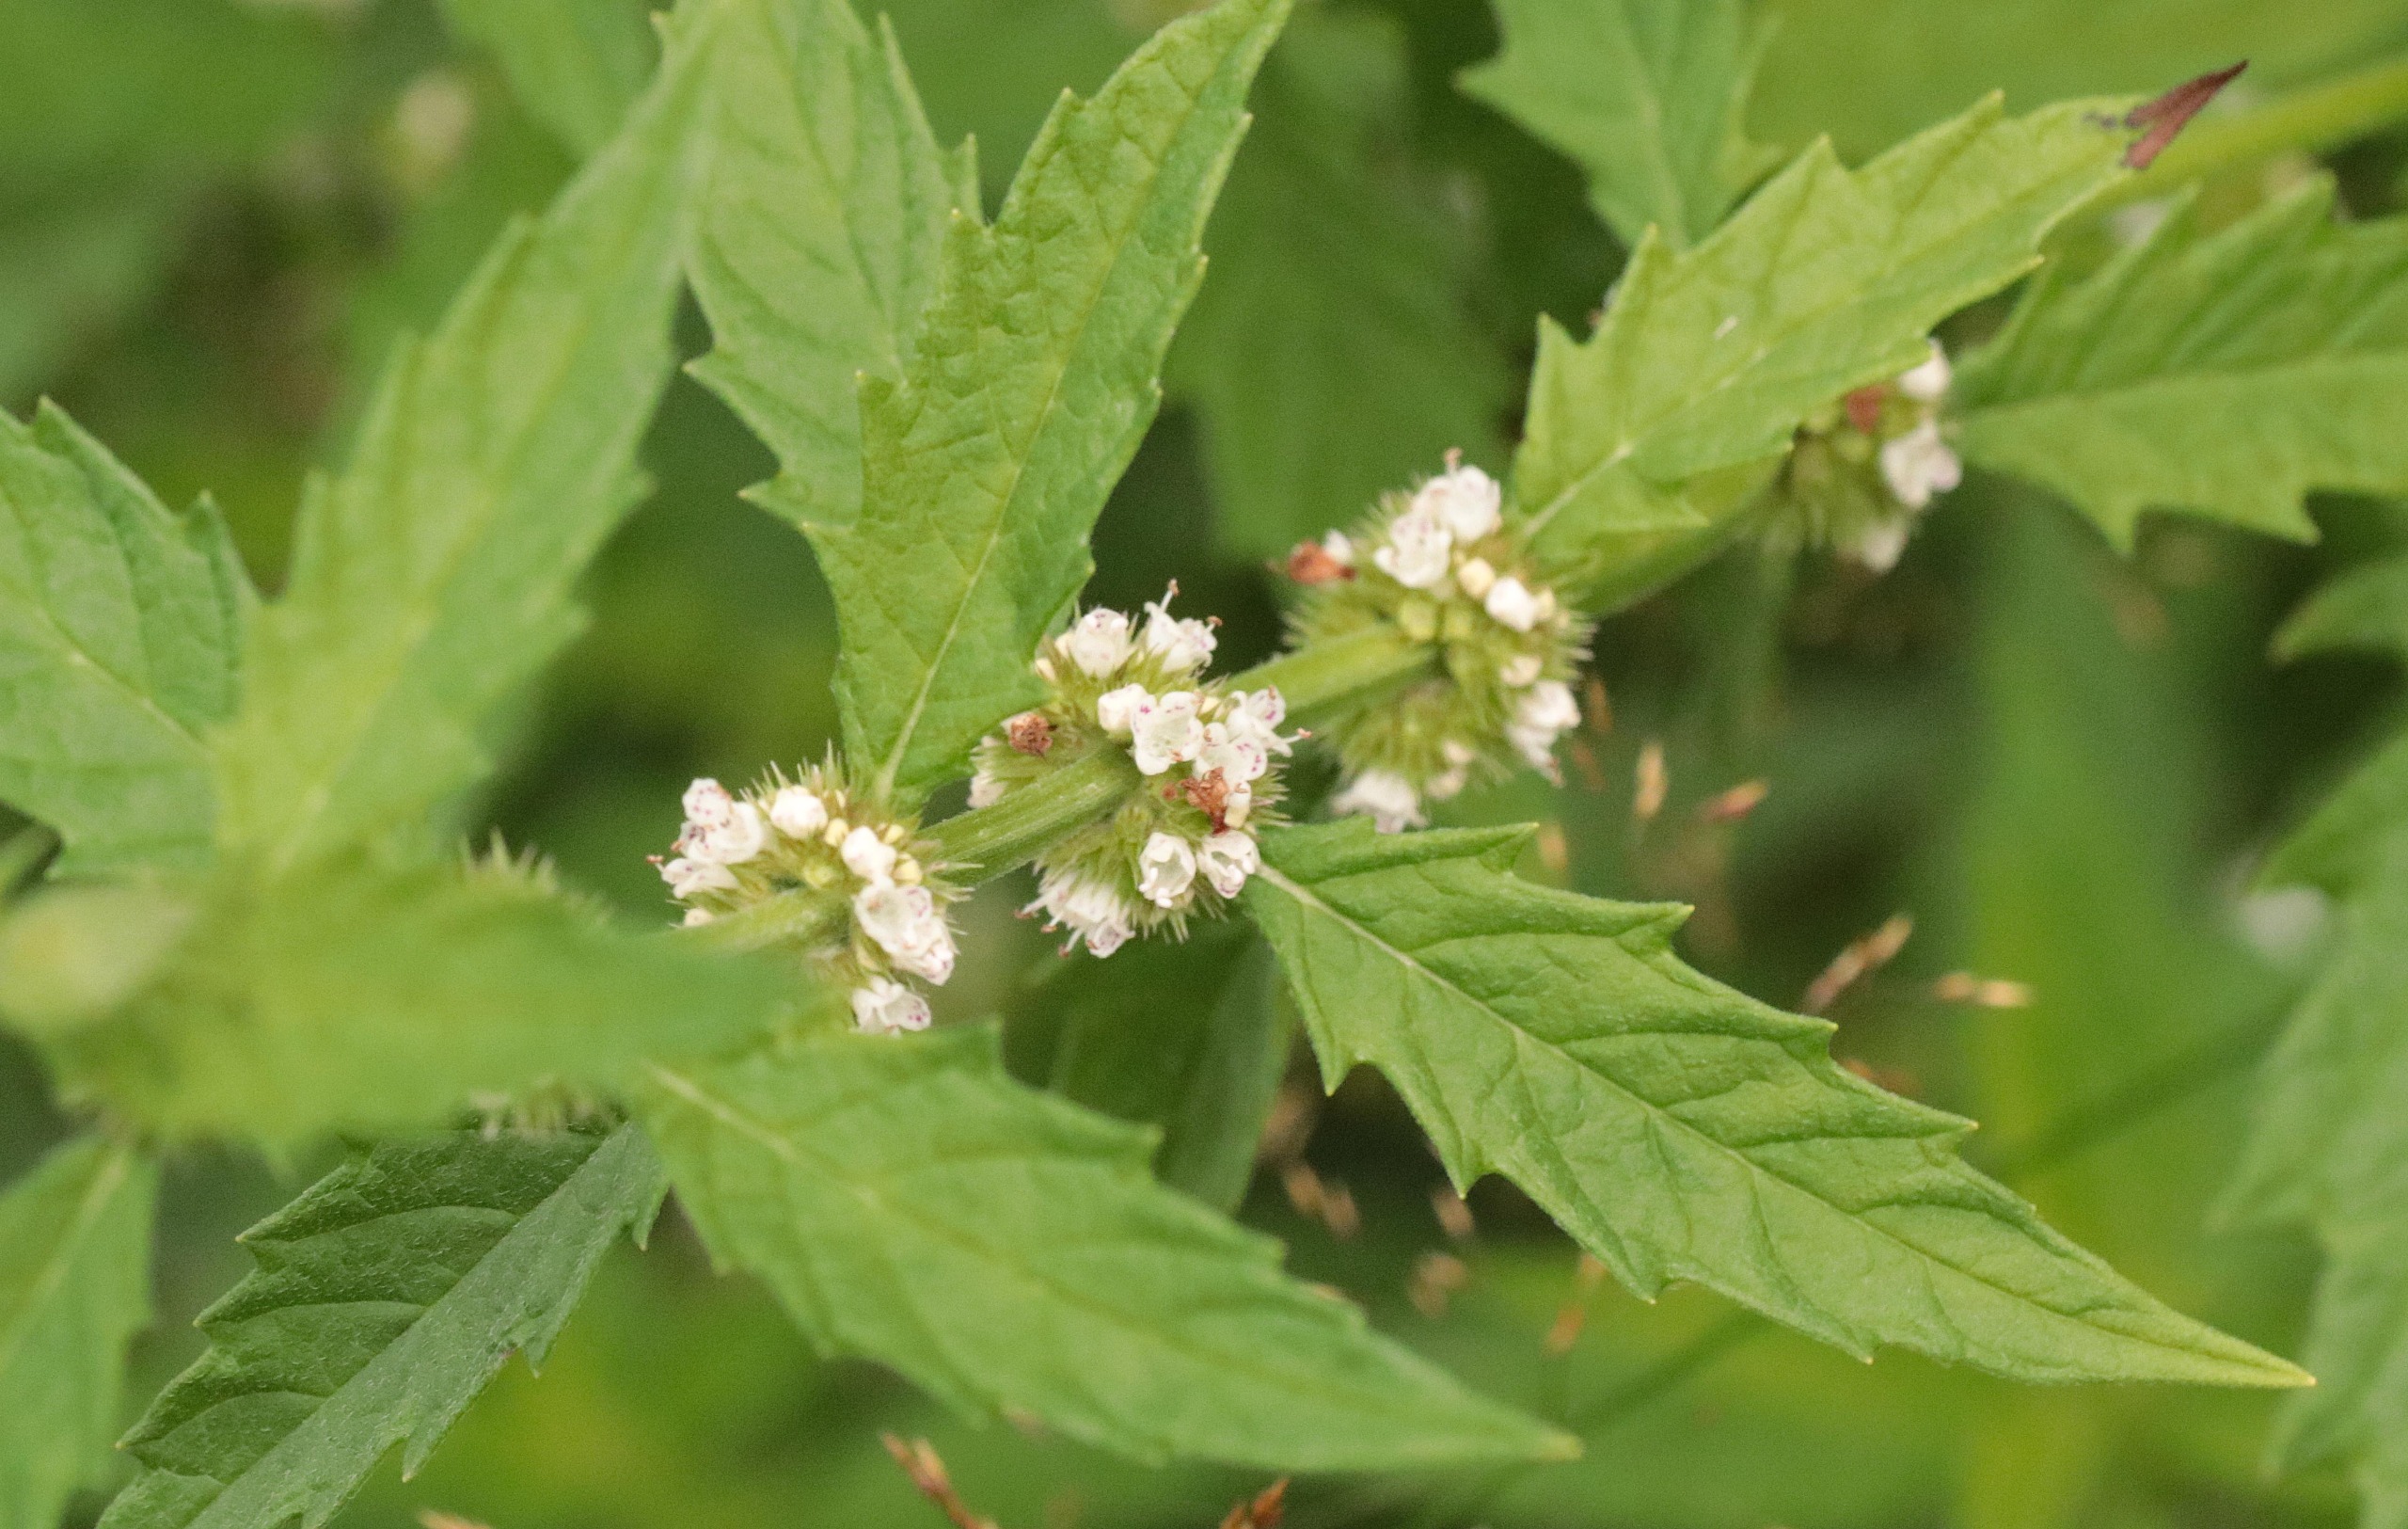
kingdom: Plantae
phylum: Tracheophyta
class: Magnoliopsida
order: Lamiales
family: Lamiaceae
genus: Lycopus
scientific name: Lycopus europaeus
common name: Sværtevæld
